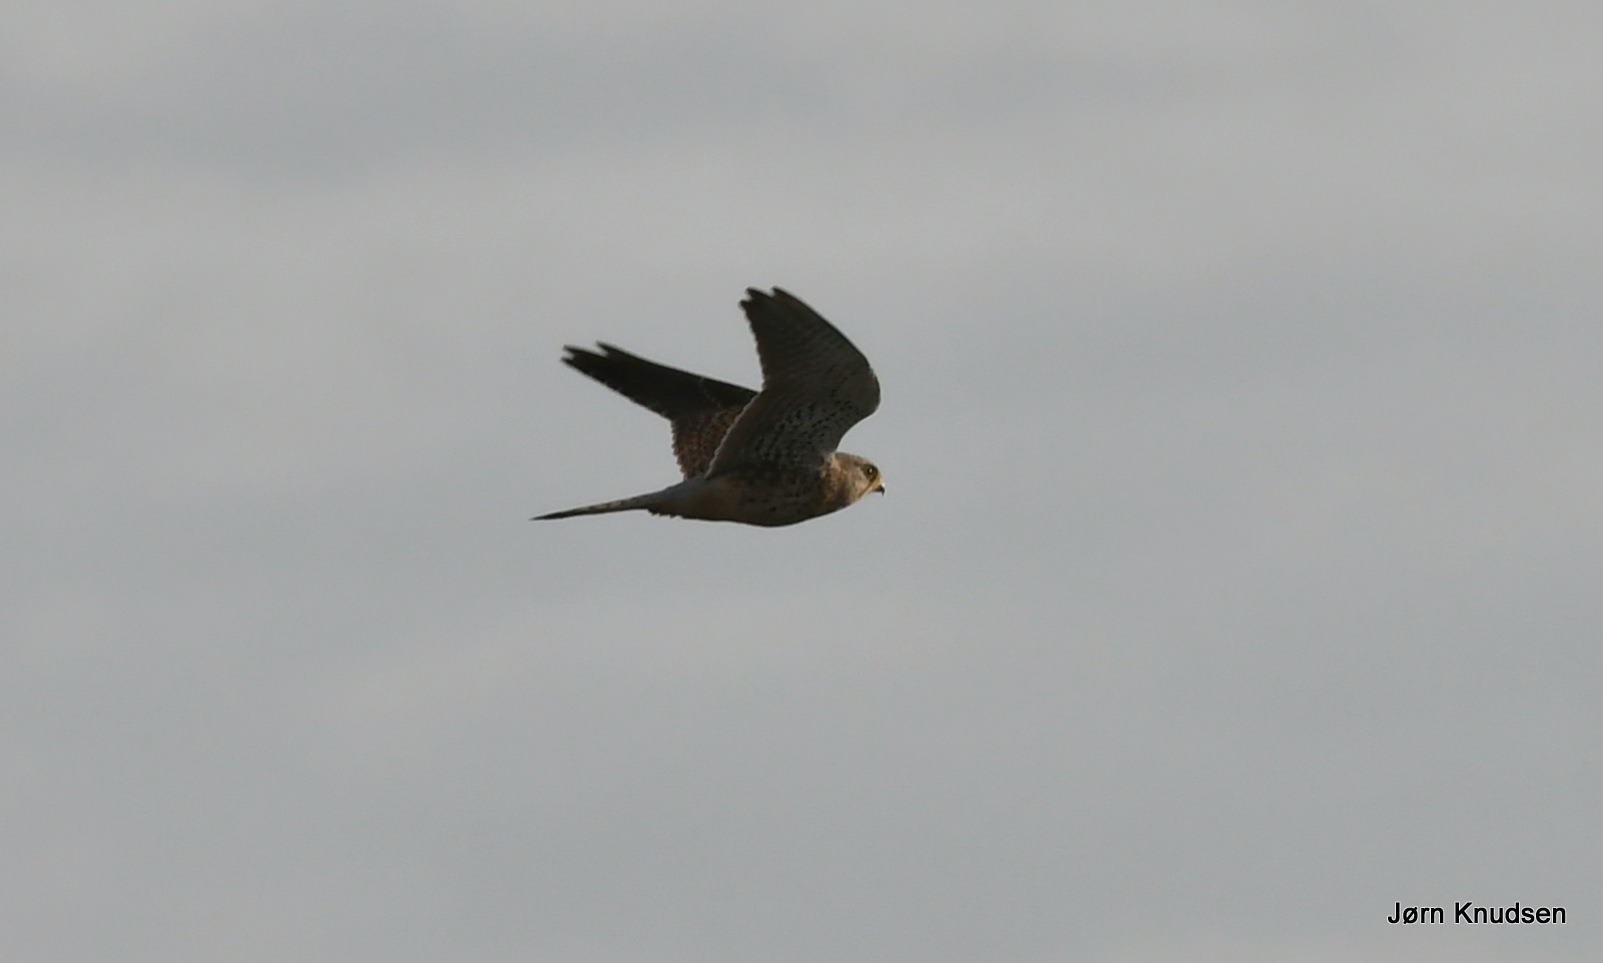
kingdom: Animalia
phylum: Chordata
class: Aves
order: Falconiformes
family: Falconidae
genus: Falco
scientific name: Falco tinnunculus
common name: Tårnfalk
